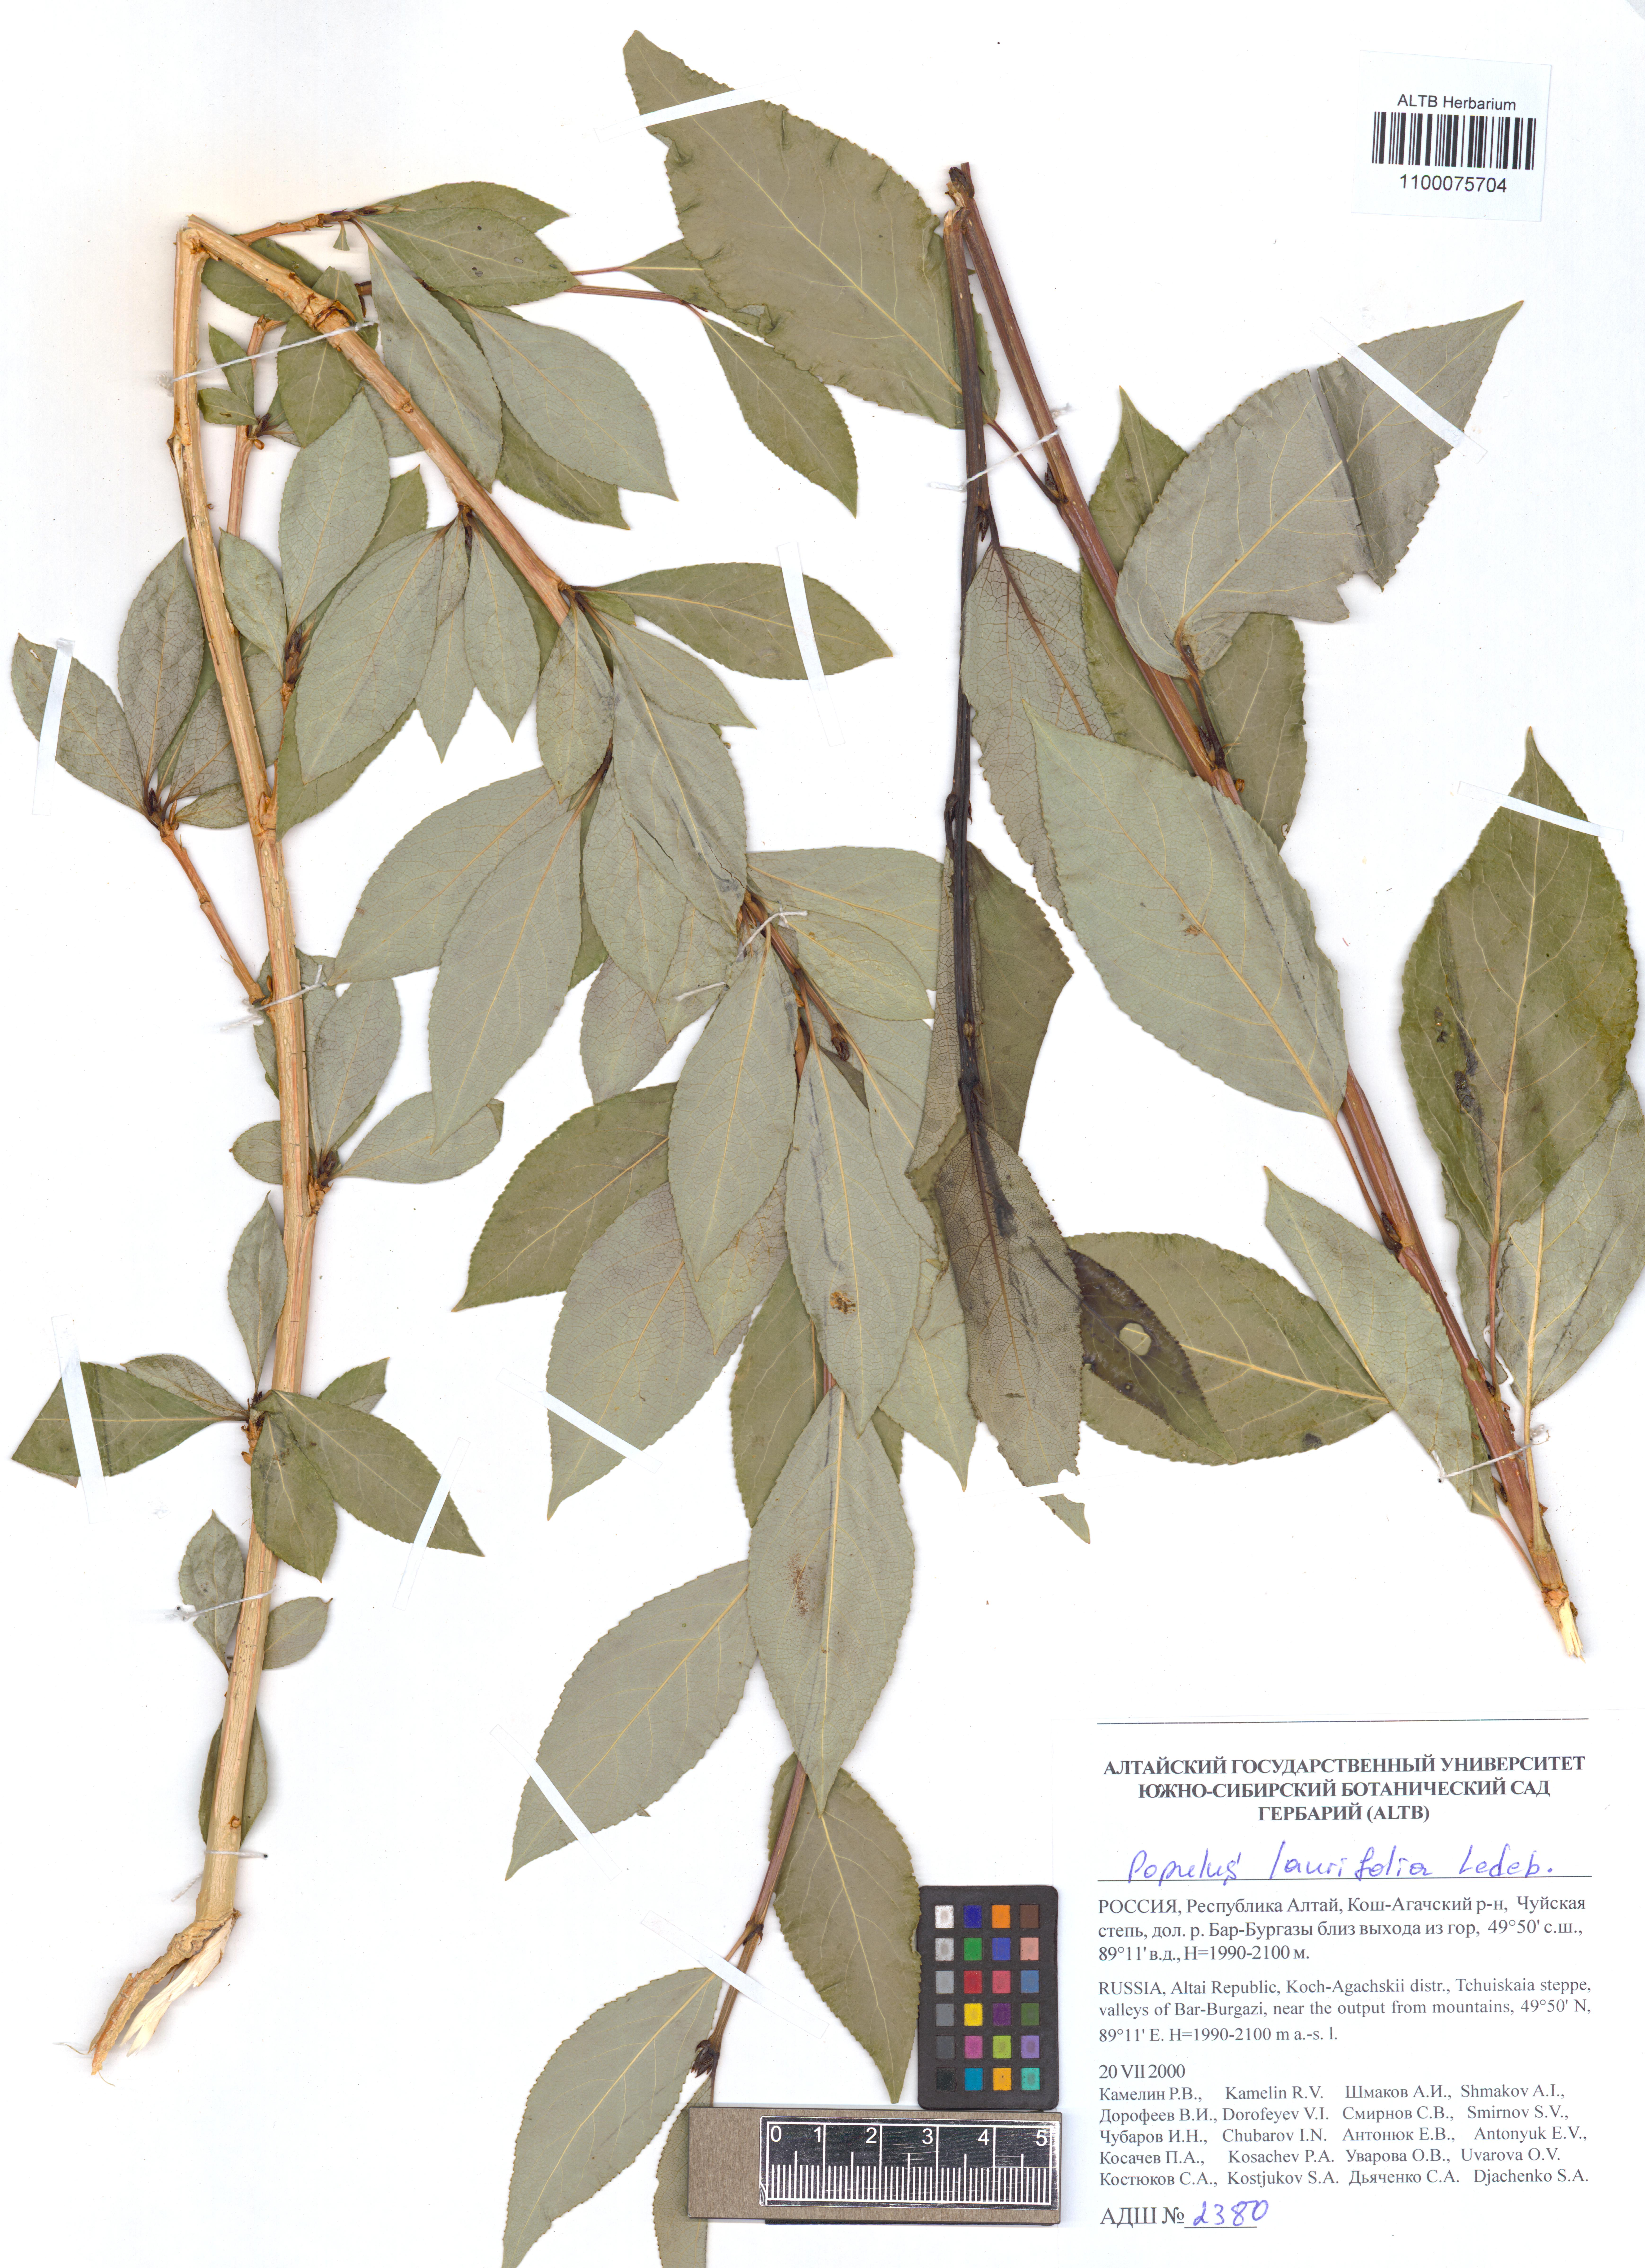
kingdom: Plantae
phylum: Tracheophyta
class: Magnoliopsida
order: Malpighiales
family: Salicaceae
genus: Populus
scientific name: Populus laurifolia
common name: Laurel-leaf poplar
